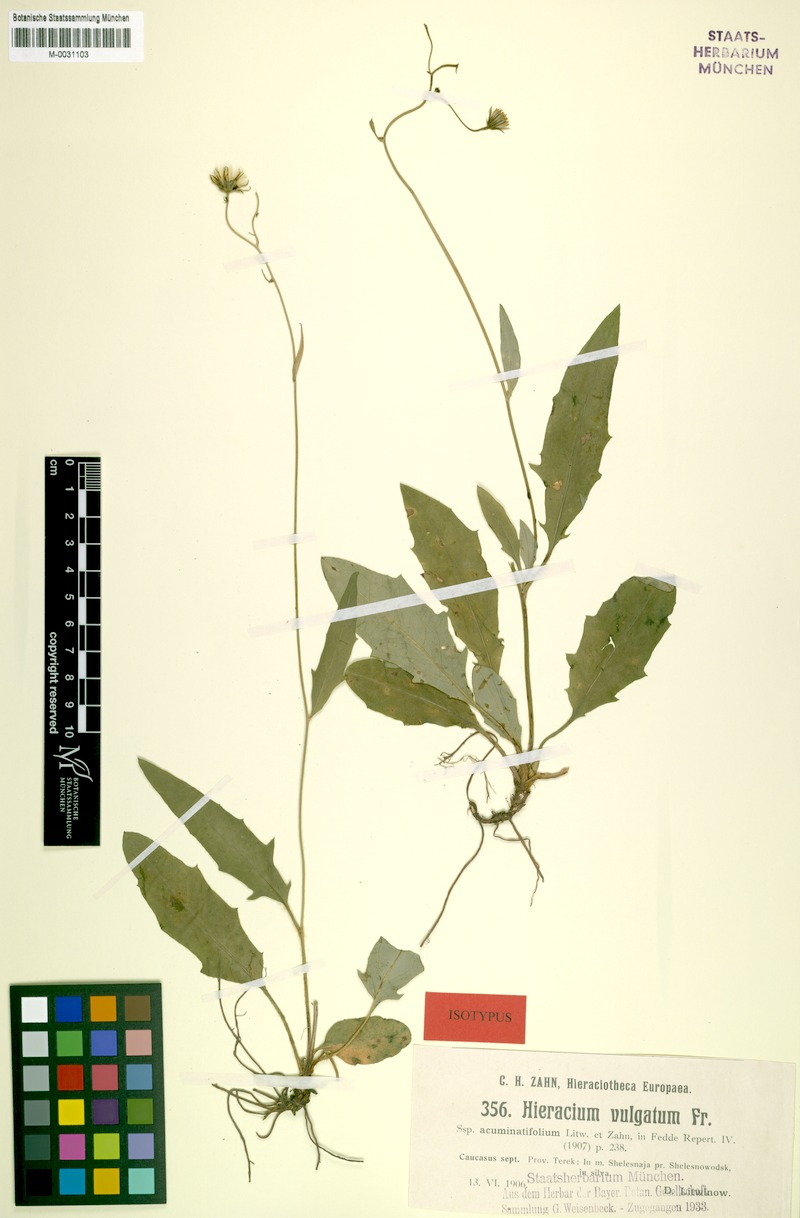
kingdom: Plantae
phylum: Tracheophyta
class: Magnoliopsida
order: Asterales
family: Asteraceae
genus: Hieracium
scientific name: Hieracium lachenalii
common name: Common hawkweed
